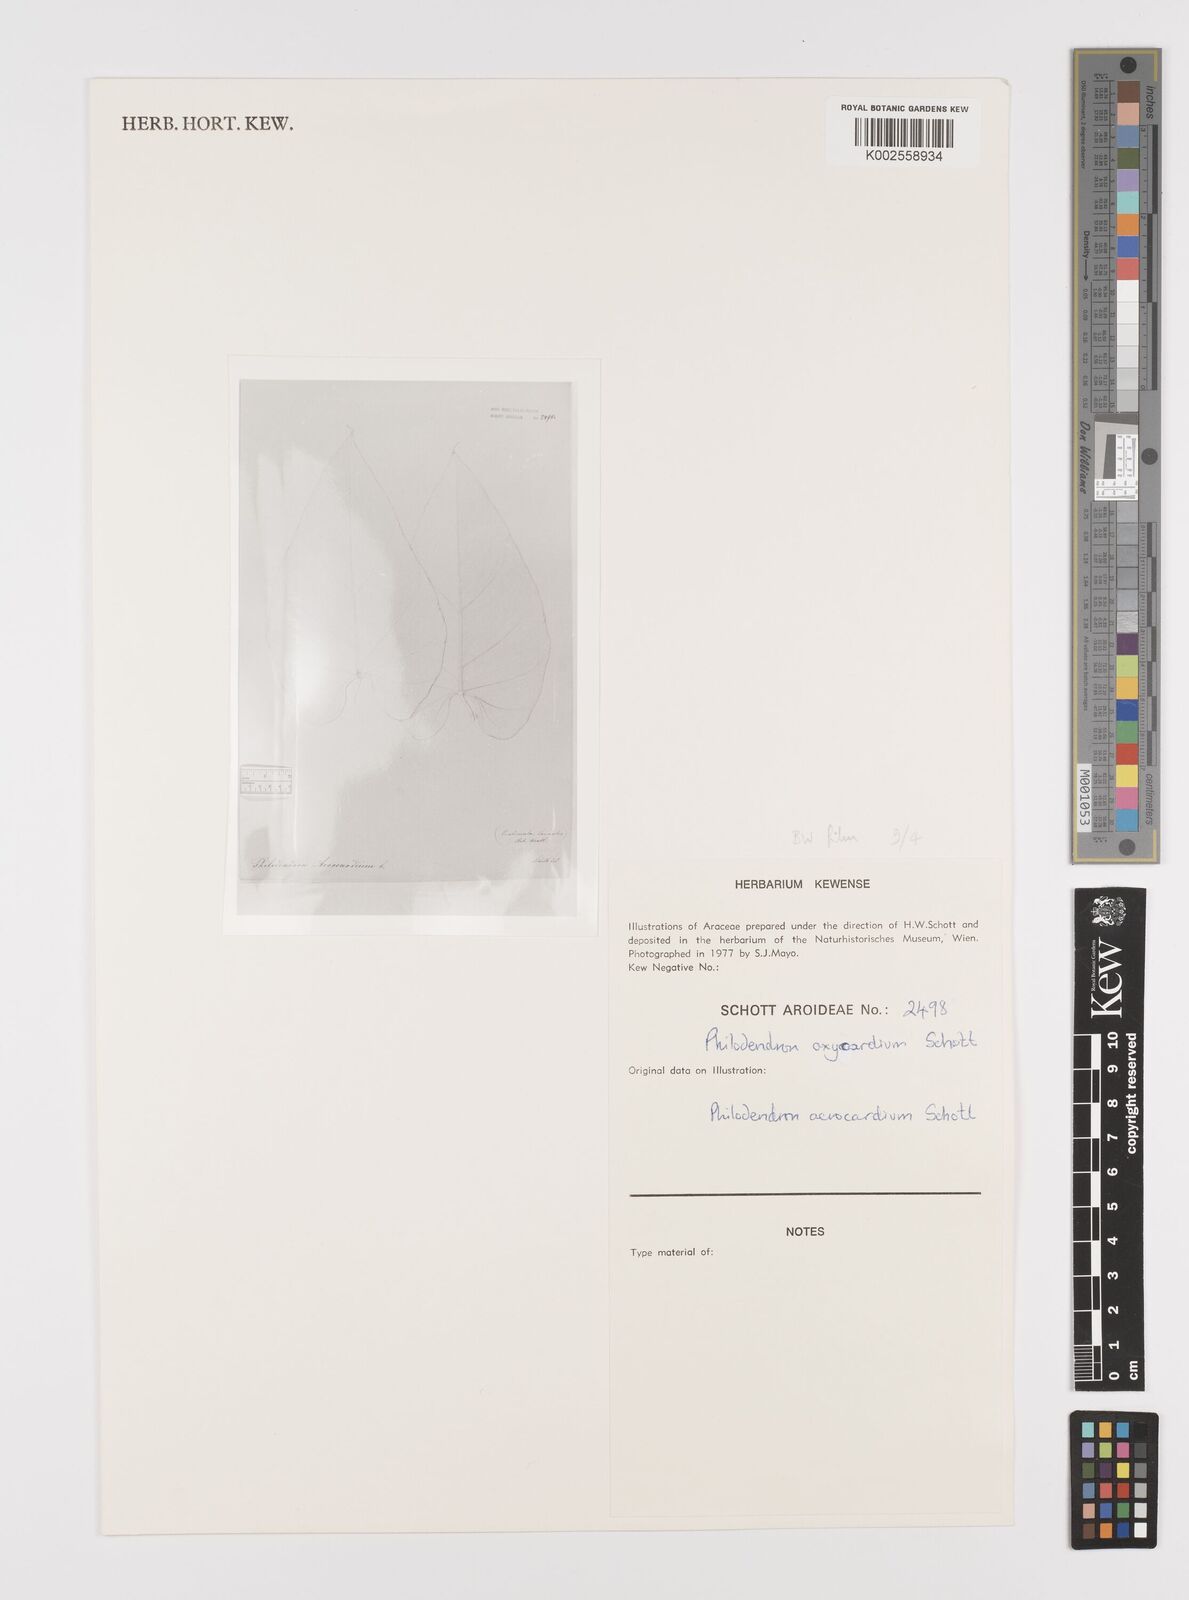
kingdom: Plantae
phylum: Tracheophyta
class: Liliopsida
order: Alismatales
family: Araceae
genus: Philodendron
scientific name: Philodendron hederaceum
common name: Vilevine
